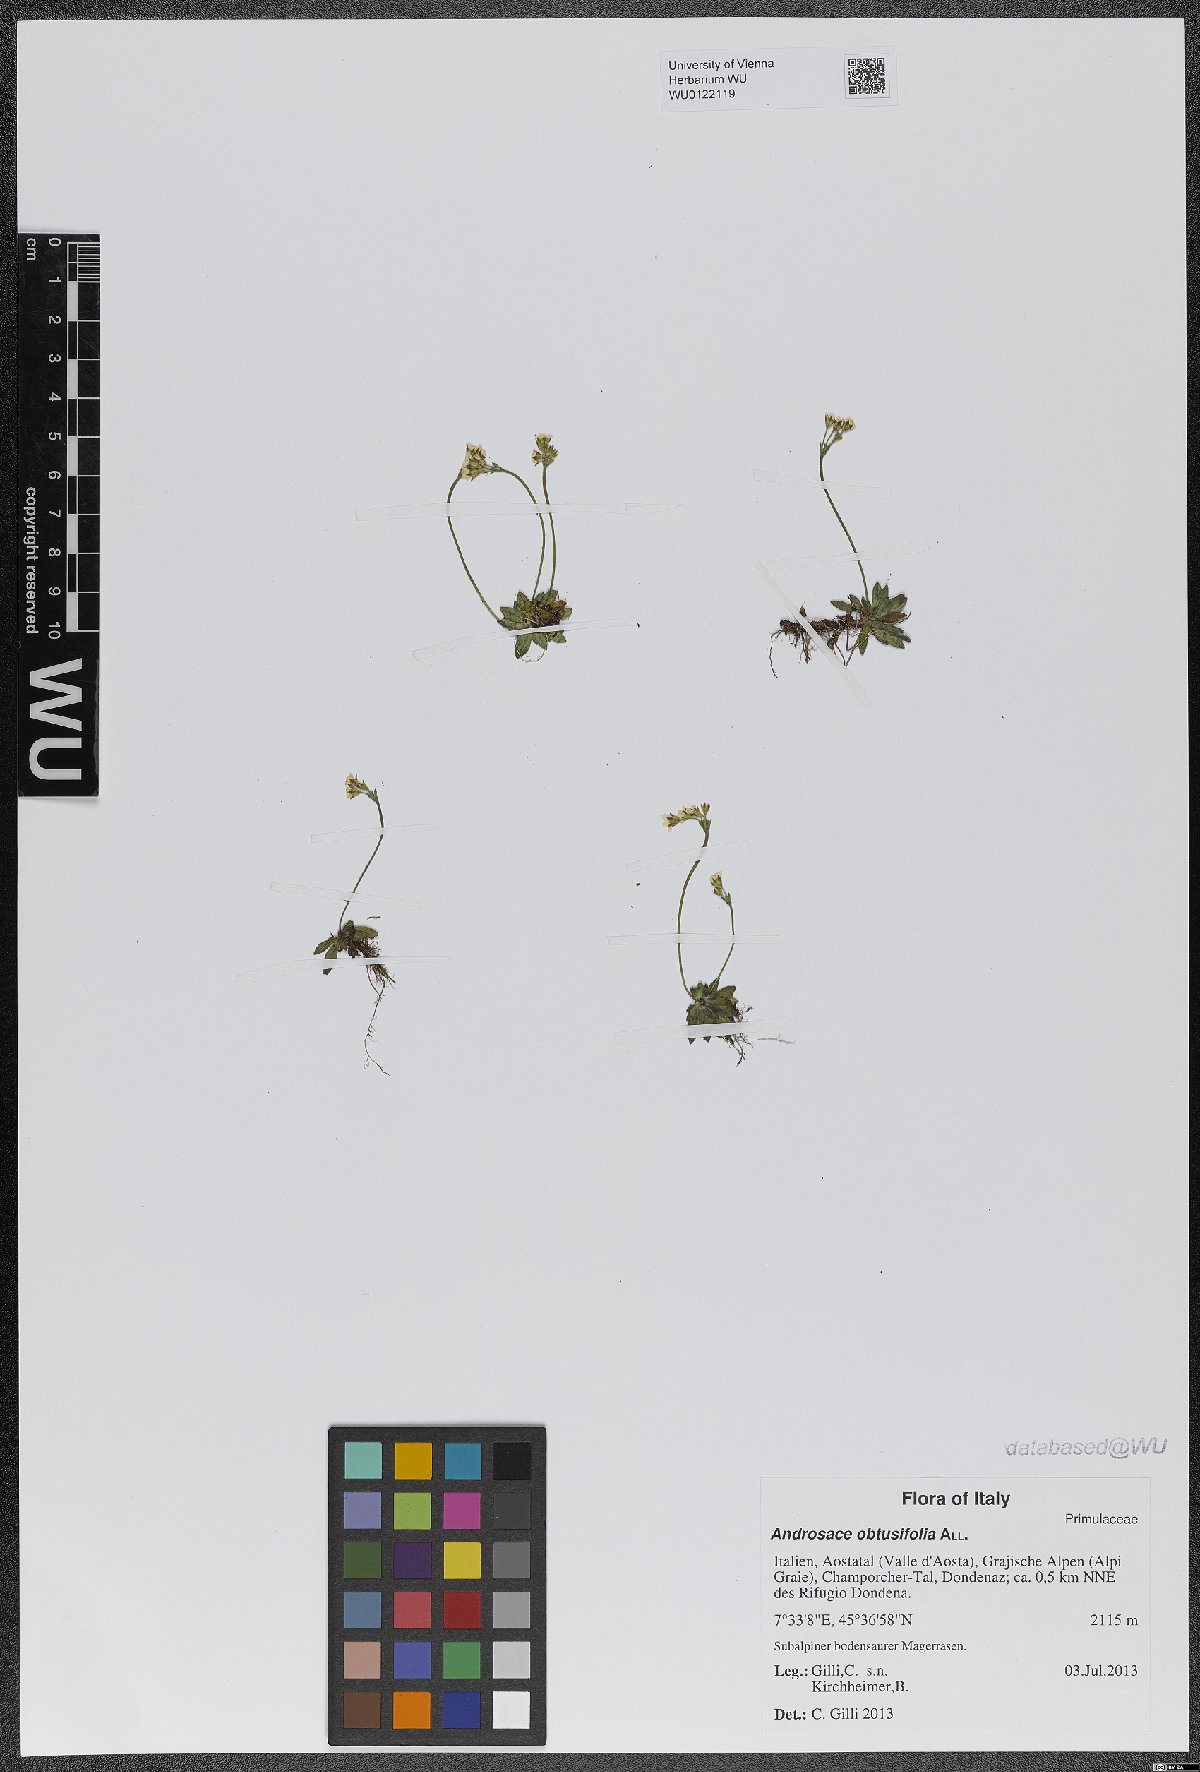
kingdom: Plantae
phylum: Tracheophyta
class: Magnoliopsida
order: Ericales
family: Primulaceae
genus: Androsace
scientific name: Androsace obtusifolia
